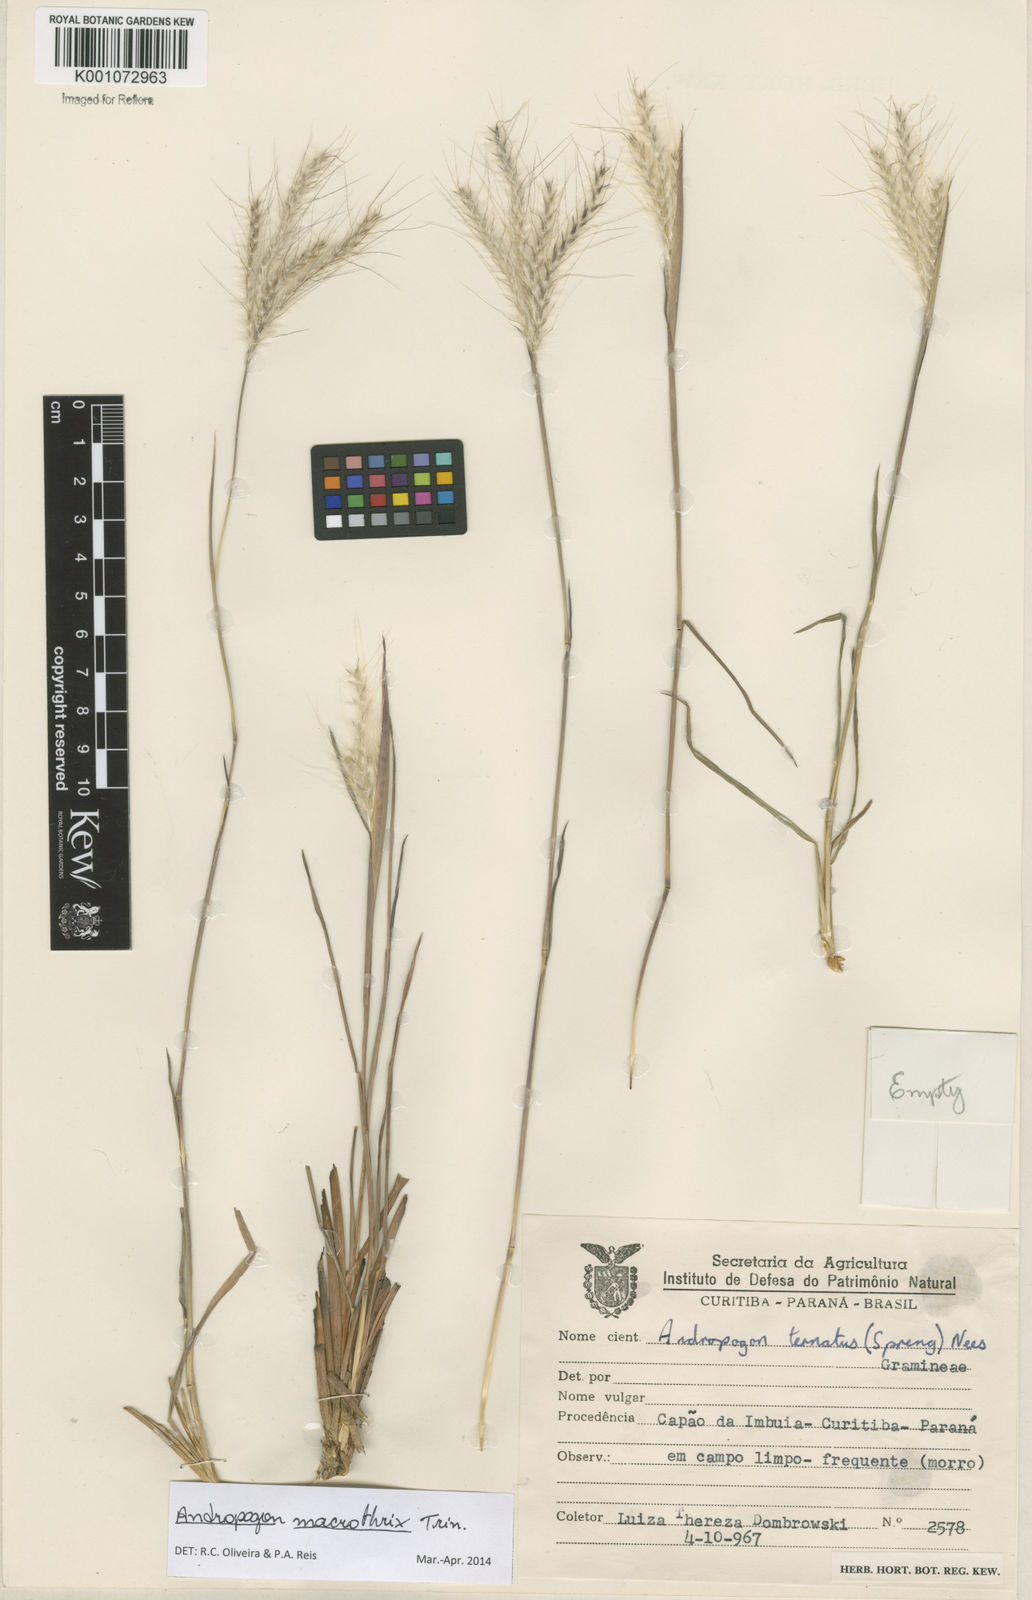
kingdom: Plantae
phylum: Tracheophyta
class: Liliopsida
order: Poales
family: Poaceae
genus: Andropogon
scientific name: Andropogon macrothrix
